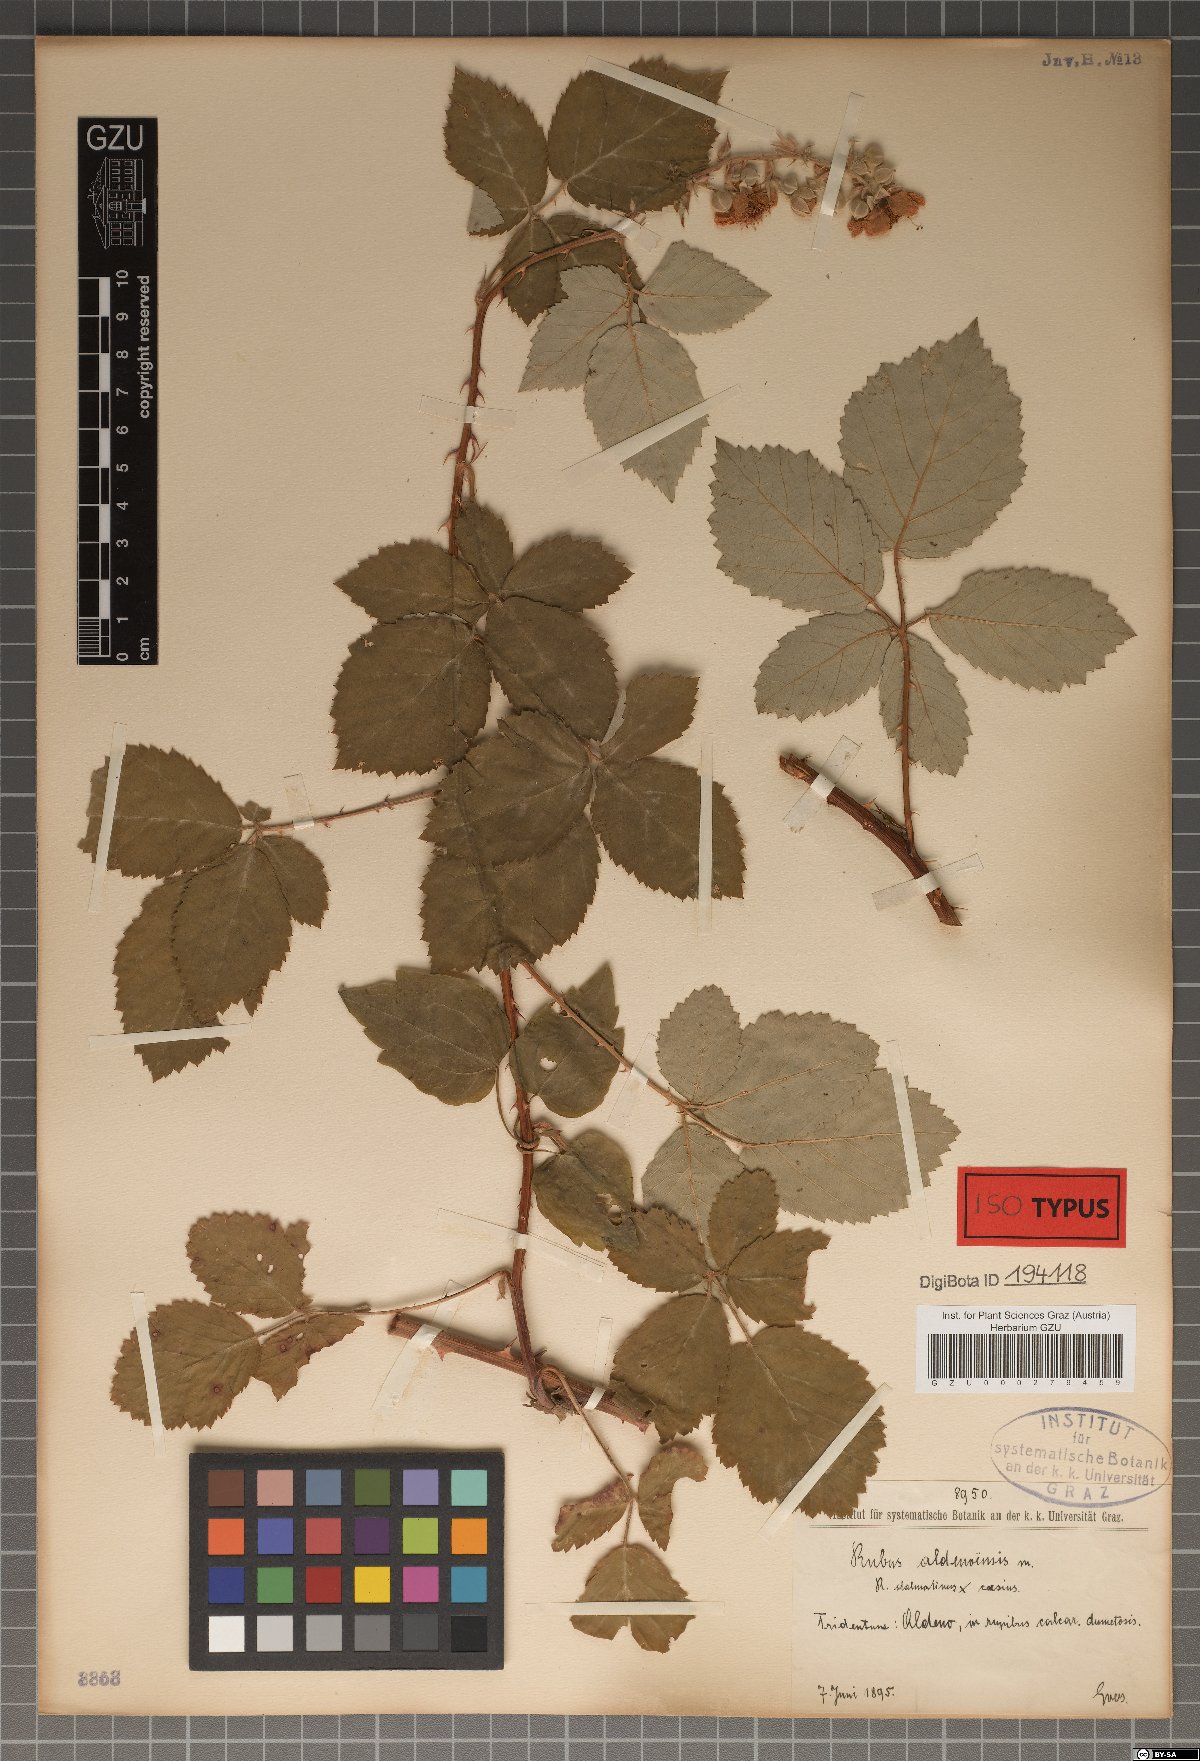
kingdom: Plantae
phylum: Tracheophyta
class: Magnoliopsida
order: Rosales
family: Rosaceae
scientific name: Rosaceae
